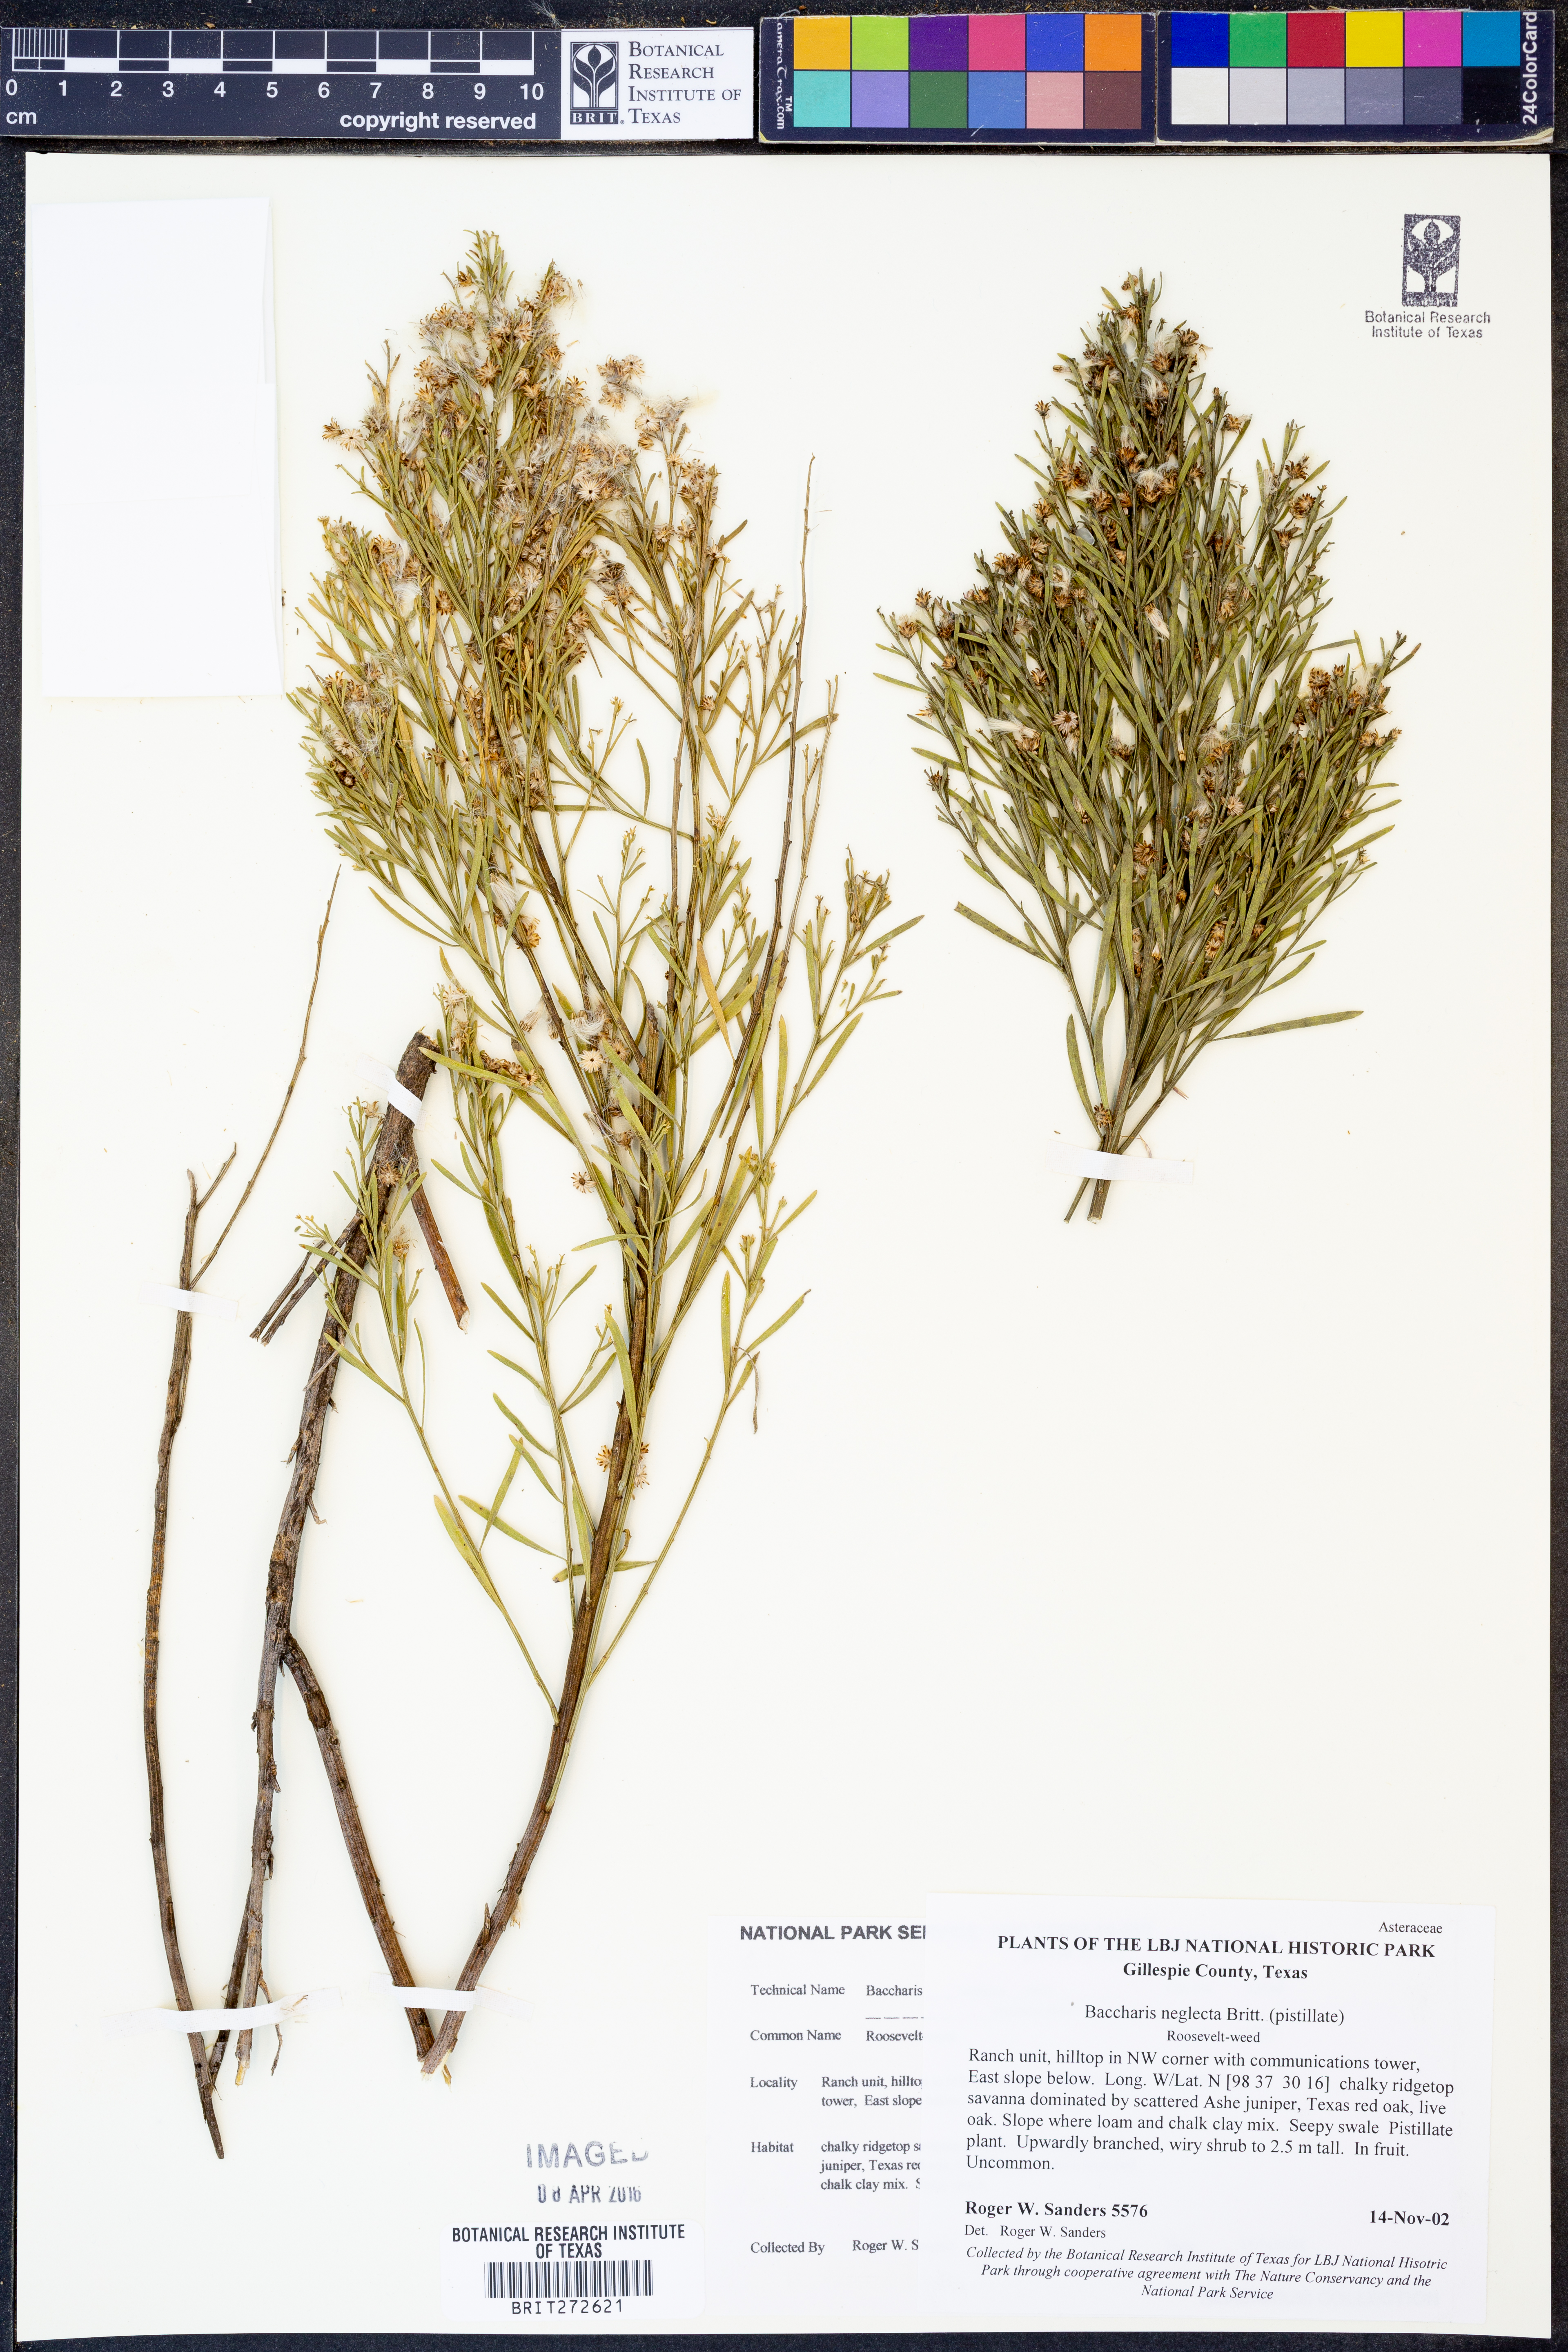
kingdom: Plantae
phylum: Tracheophyta
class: Magnoliopsida
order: Asterales
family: Asteraceae
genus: Baccharis
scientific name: Baccharis neglecta
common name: Roosevelt-weed
